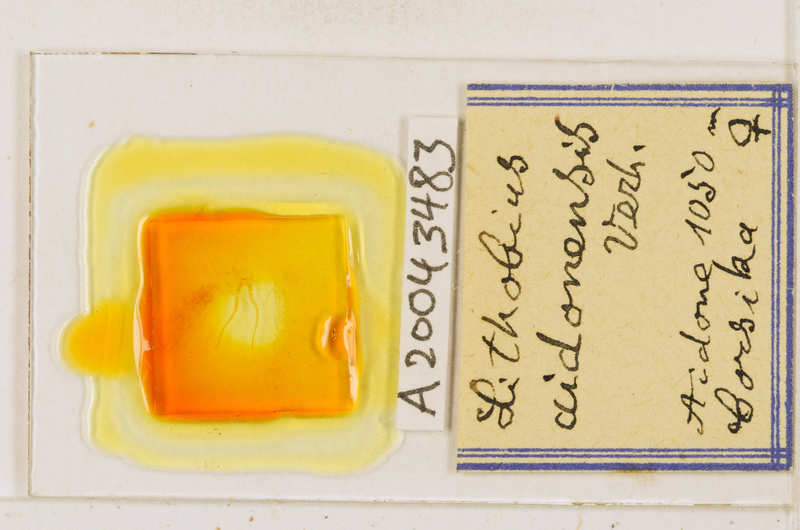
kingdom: Animalia
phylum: Arthropoda
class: Chilopoda
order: Lithobiomorpha
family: Lithobiidae
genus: Lithobius
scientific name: Lithobius aidonensis
